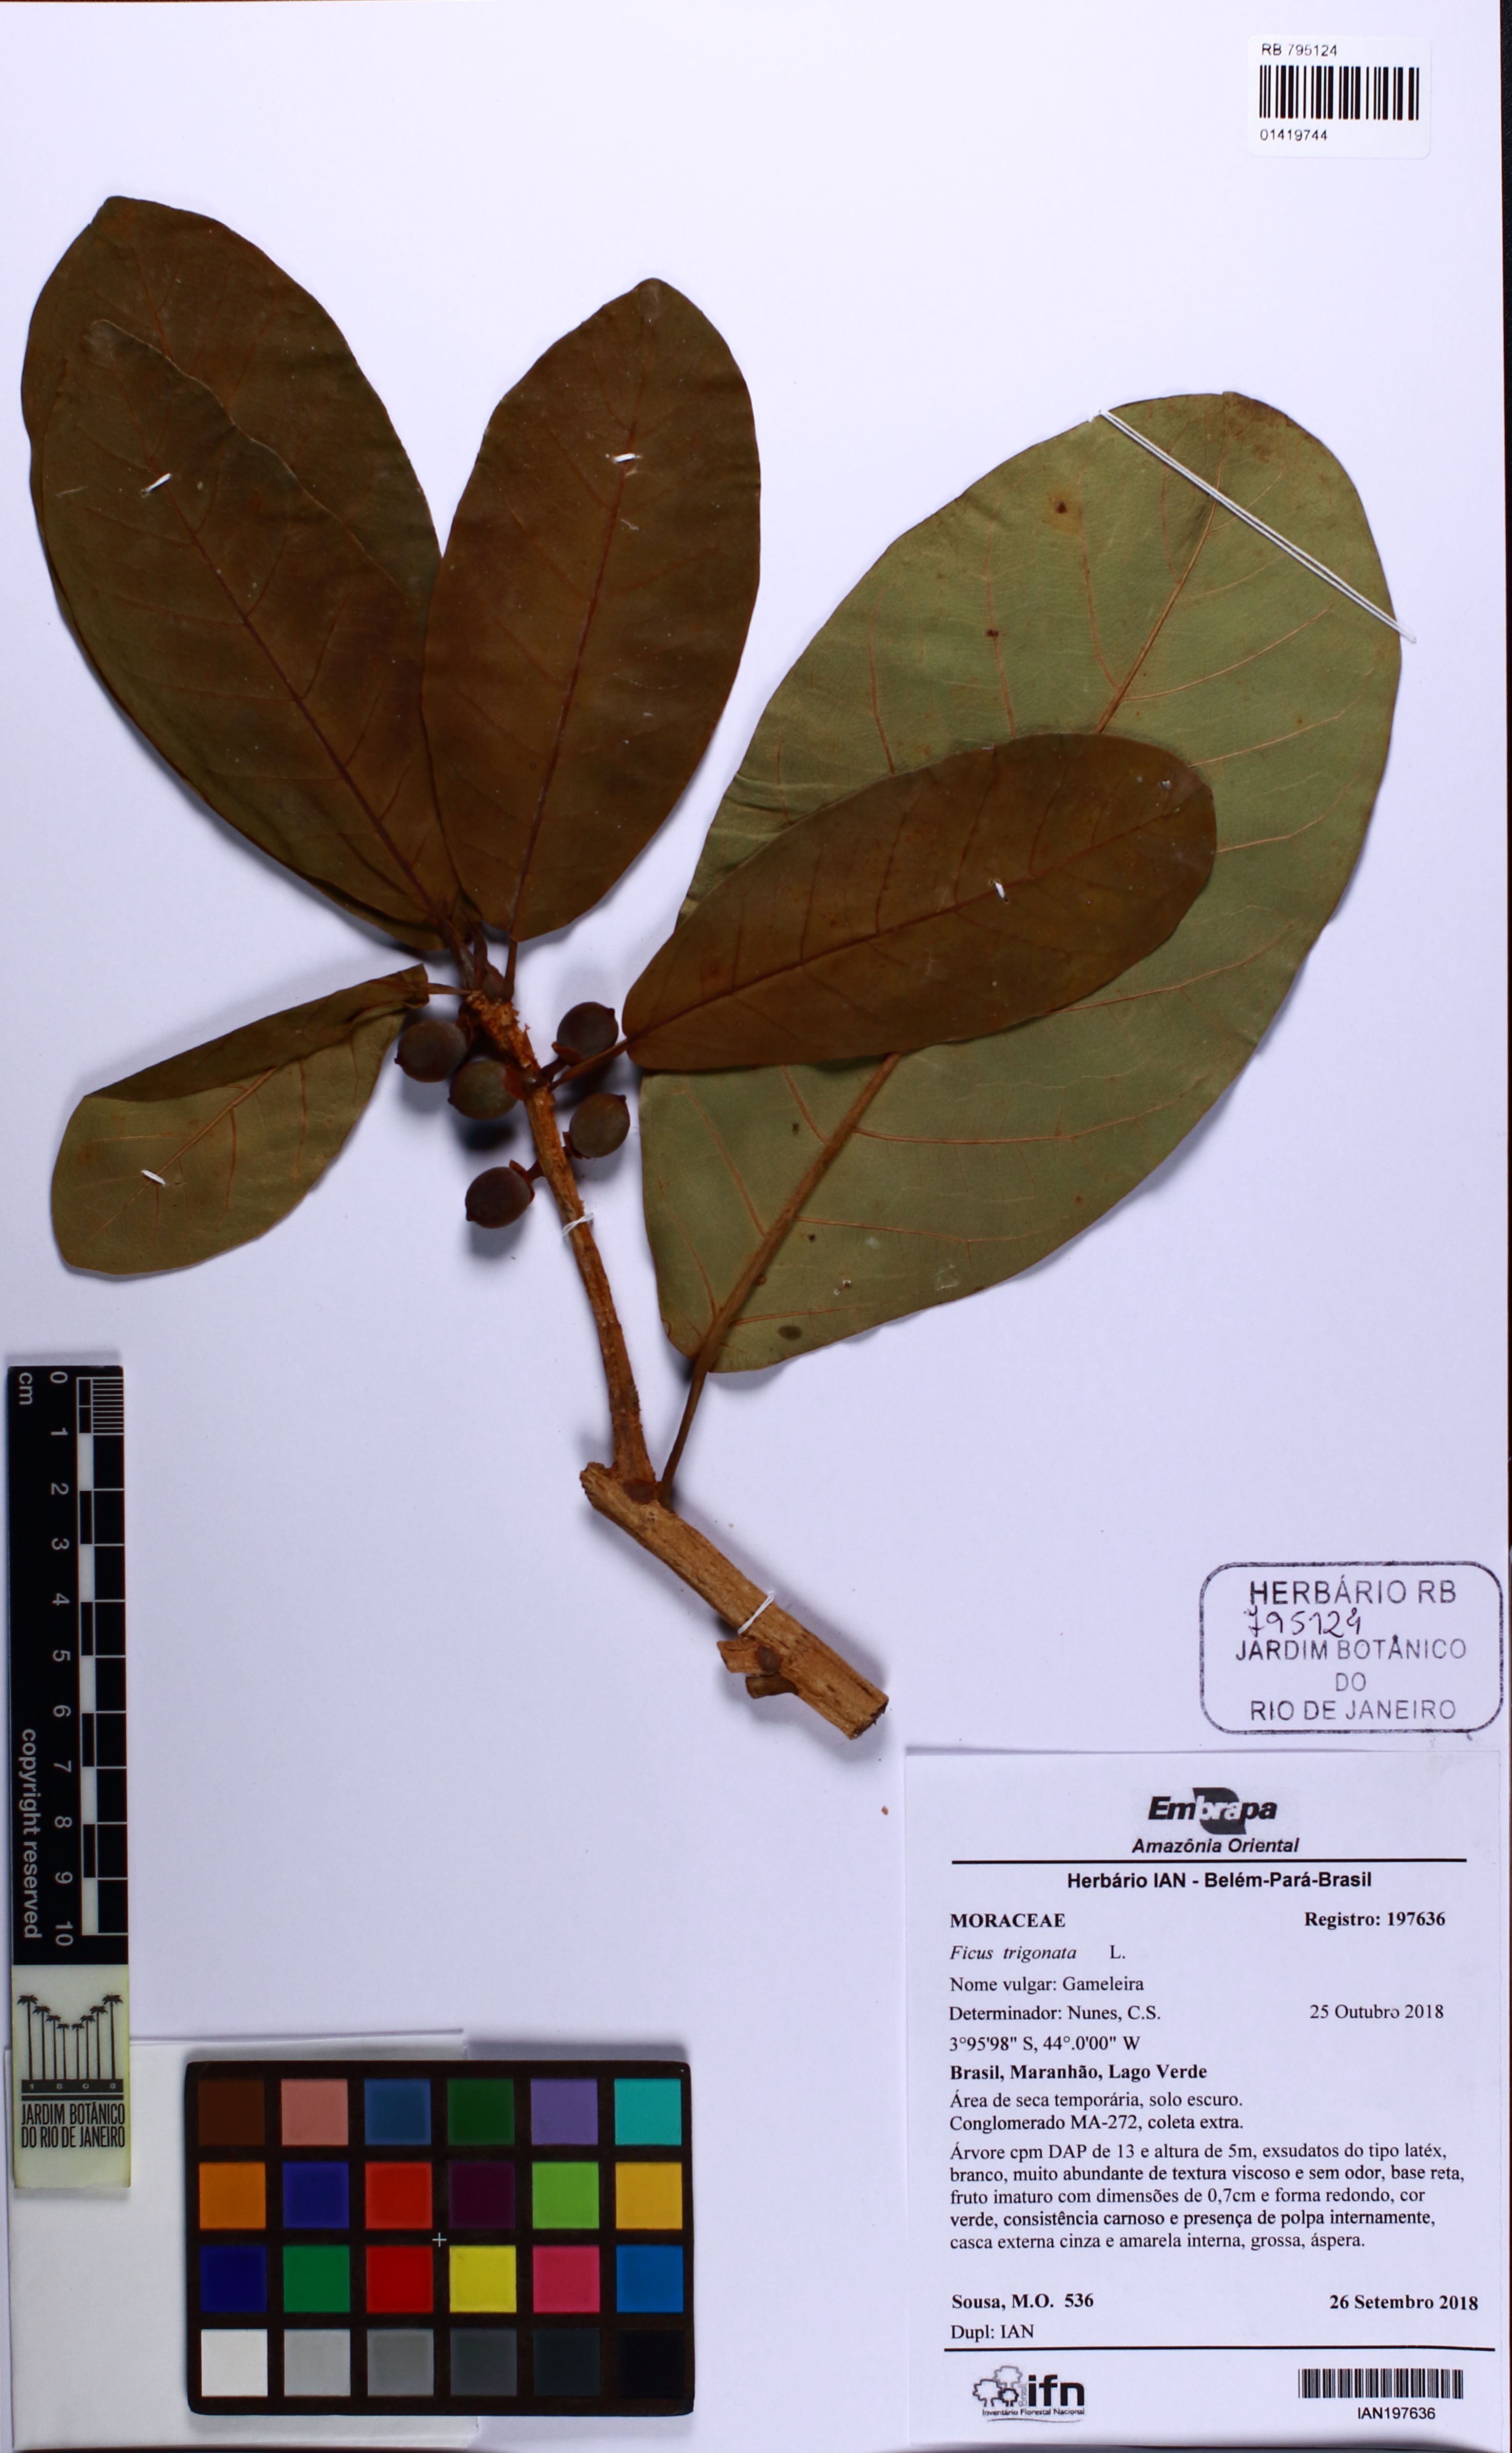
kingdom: Plantae
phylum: Tracheophyta
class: Magnoliopsida
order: Rosales
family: Moraceae
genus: Ficus
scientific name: Ficus obtusifolia
